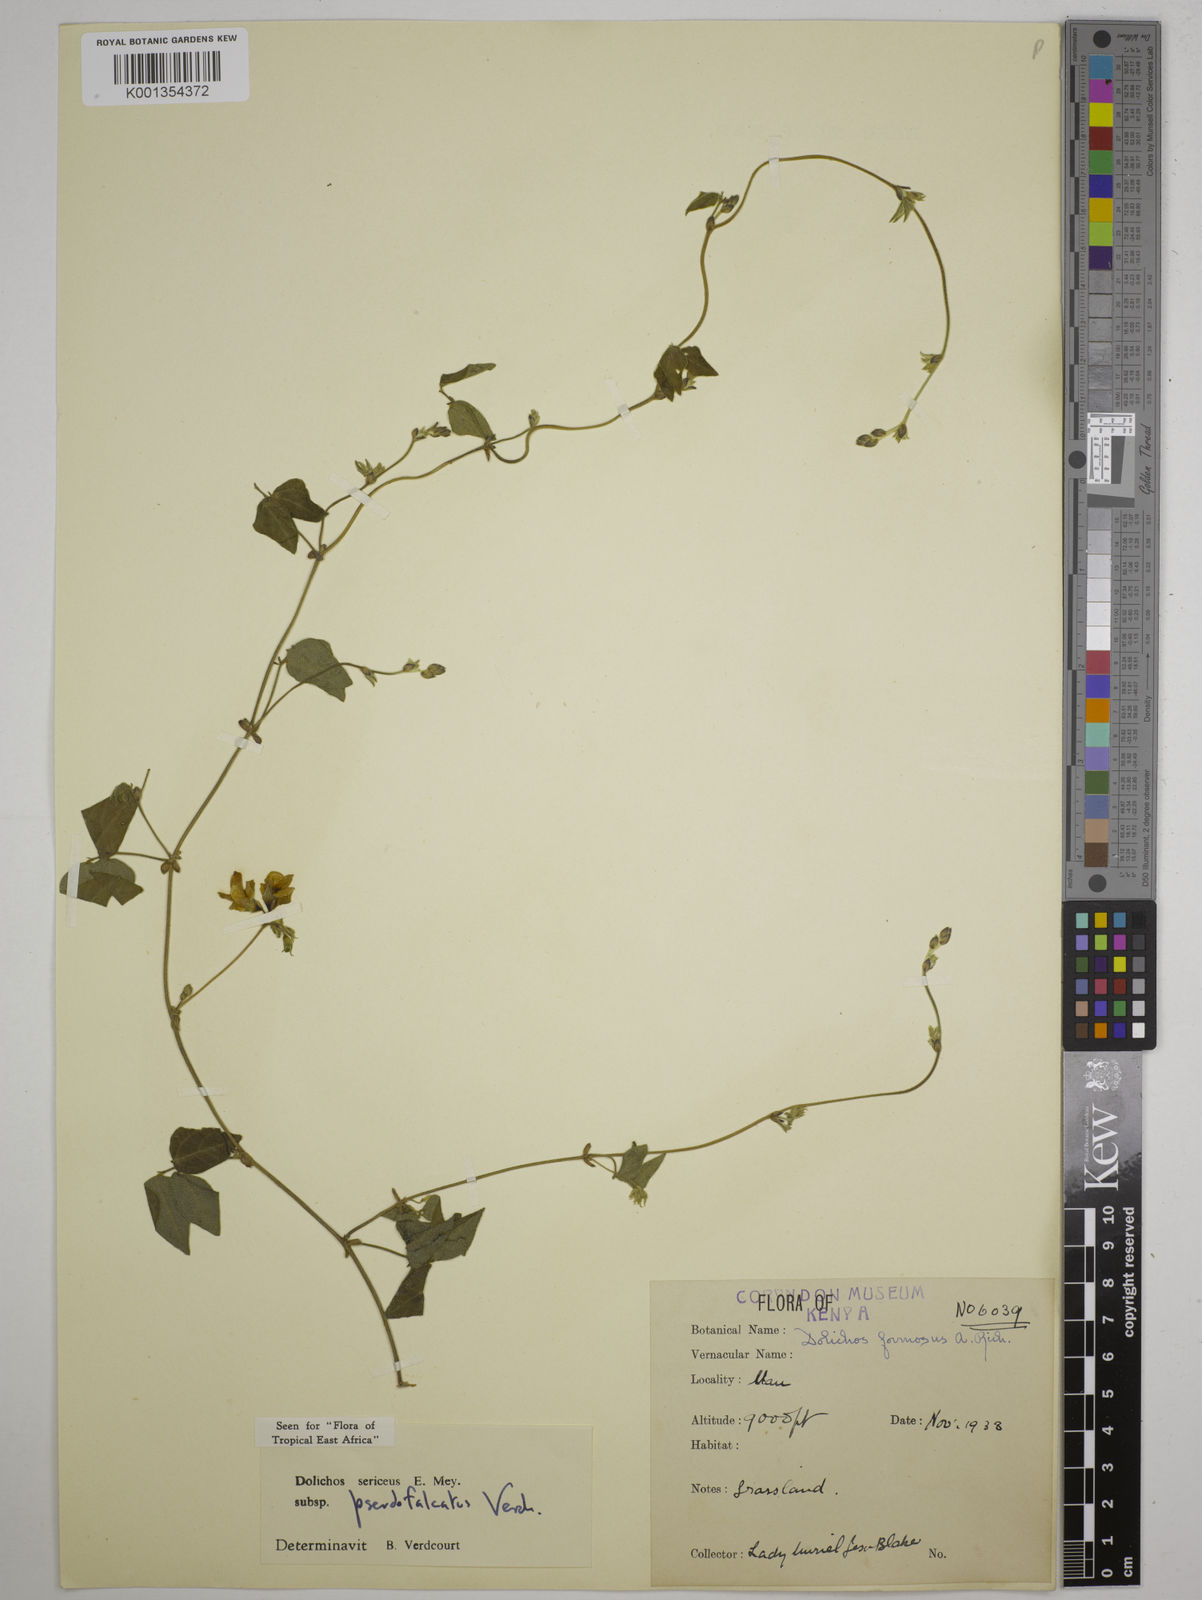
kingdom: Plantae
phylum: Tracheophyta
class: Magnoliopsida
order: Fabales
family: Fabaceae
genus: Dolichos
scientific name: Dolichos
